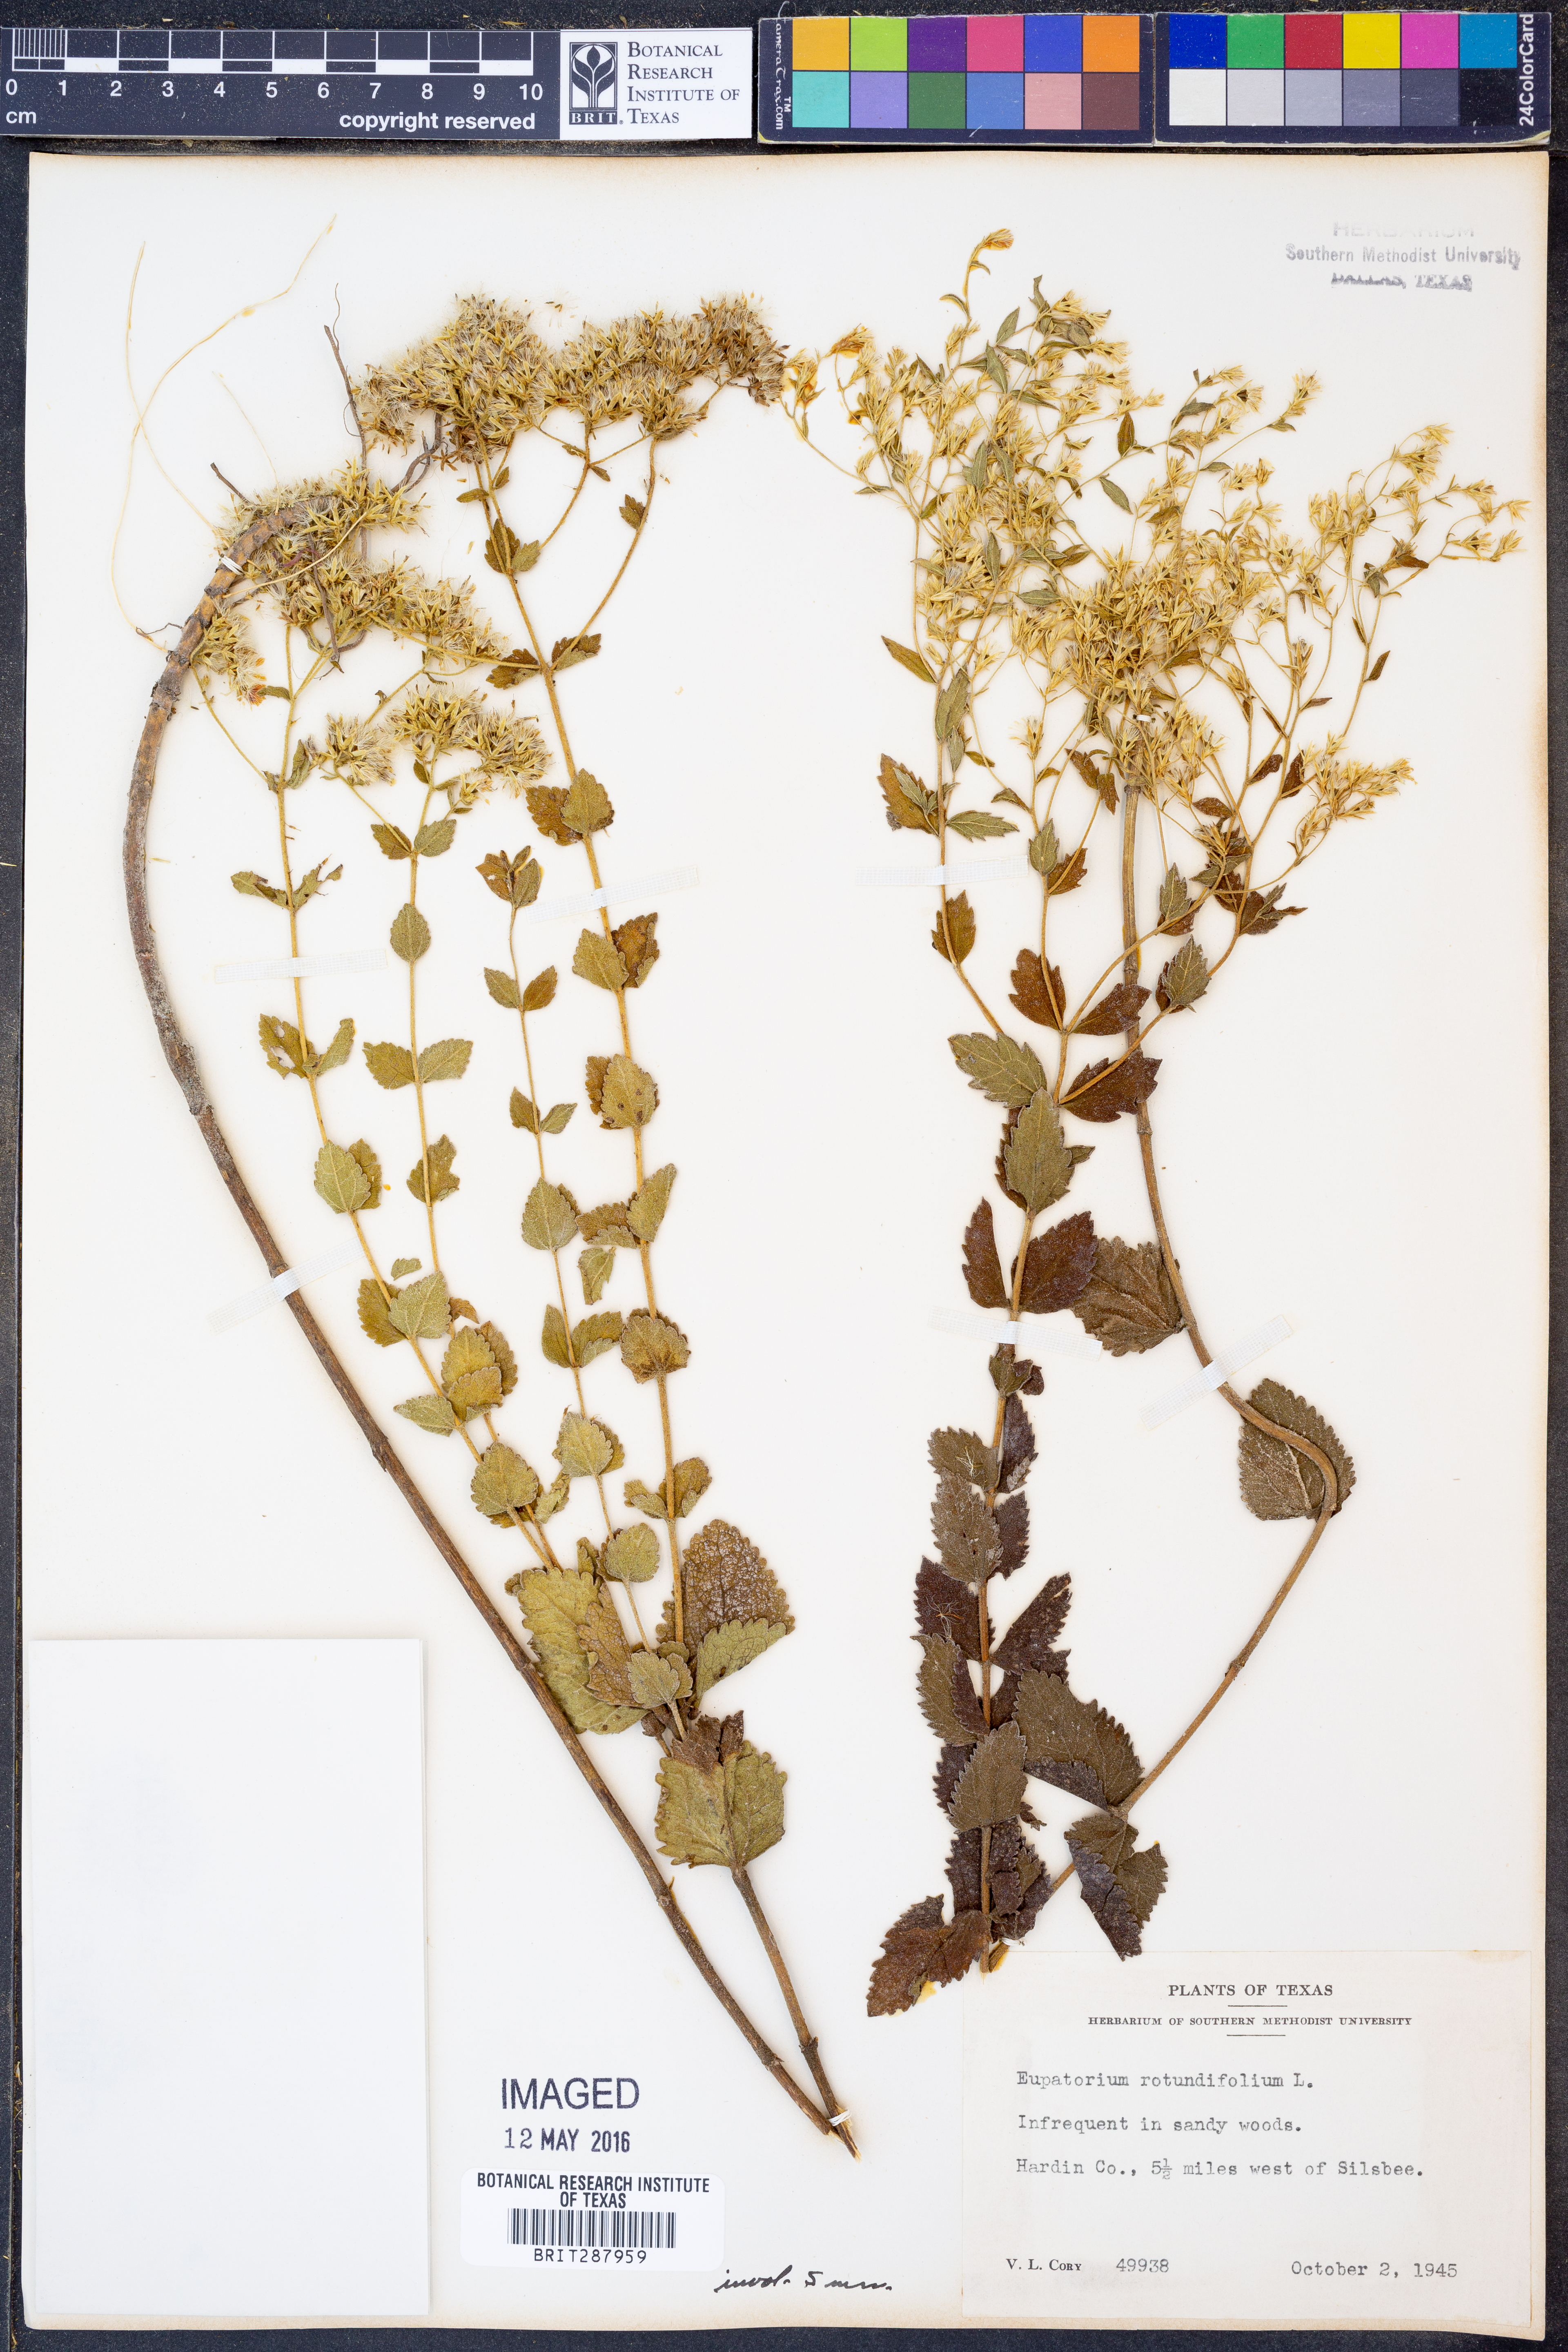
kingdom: Plantae
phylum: Tracheophyta
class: Magnoliopsida
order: Asterales
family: Asteraceae
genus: Eupatorium
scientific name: Eupatorium rotundifolium
